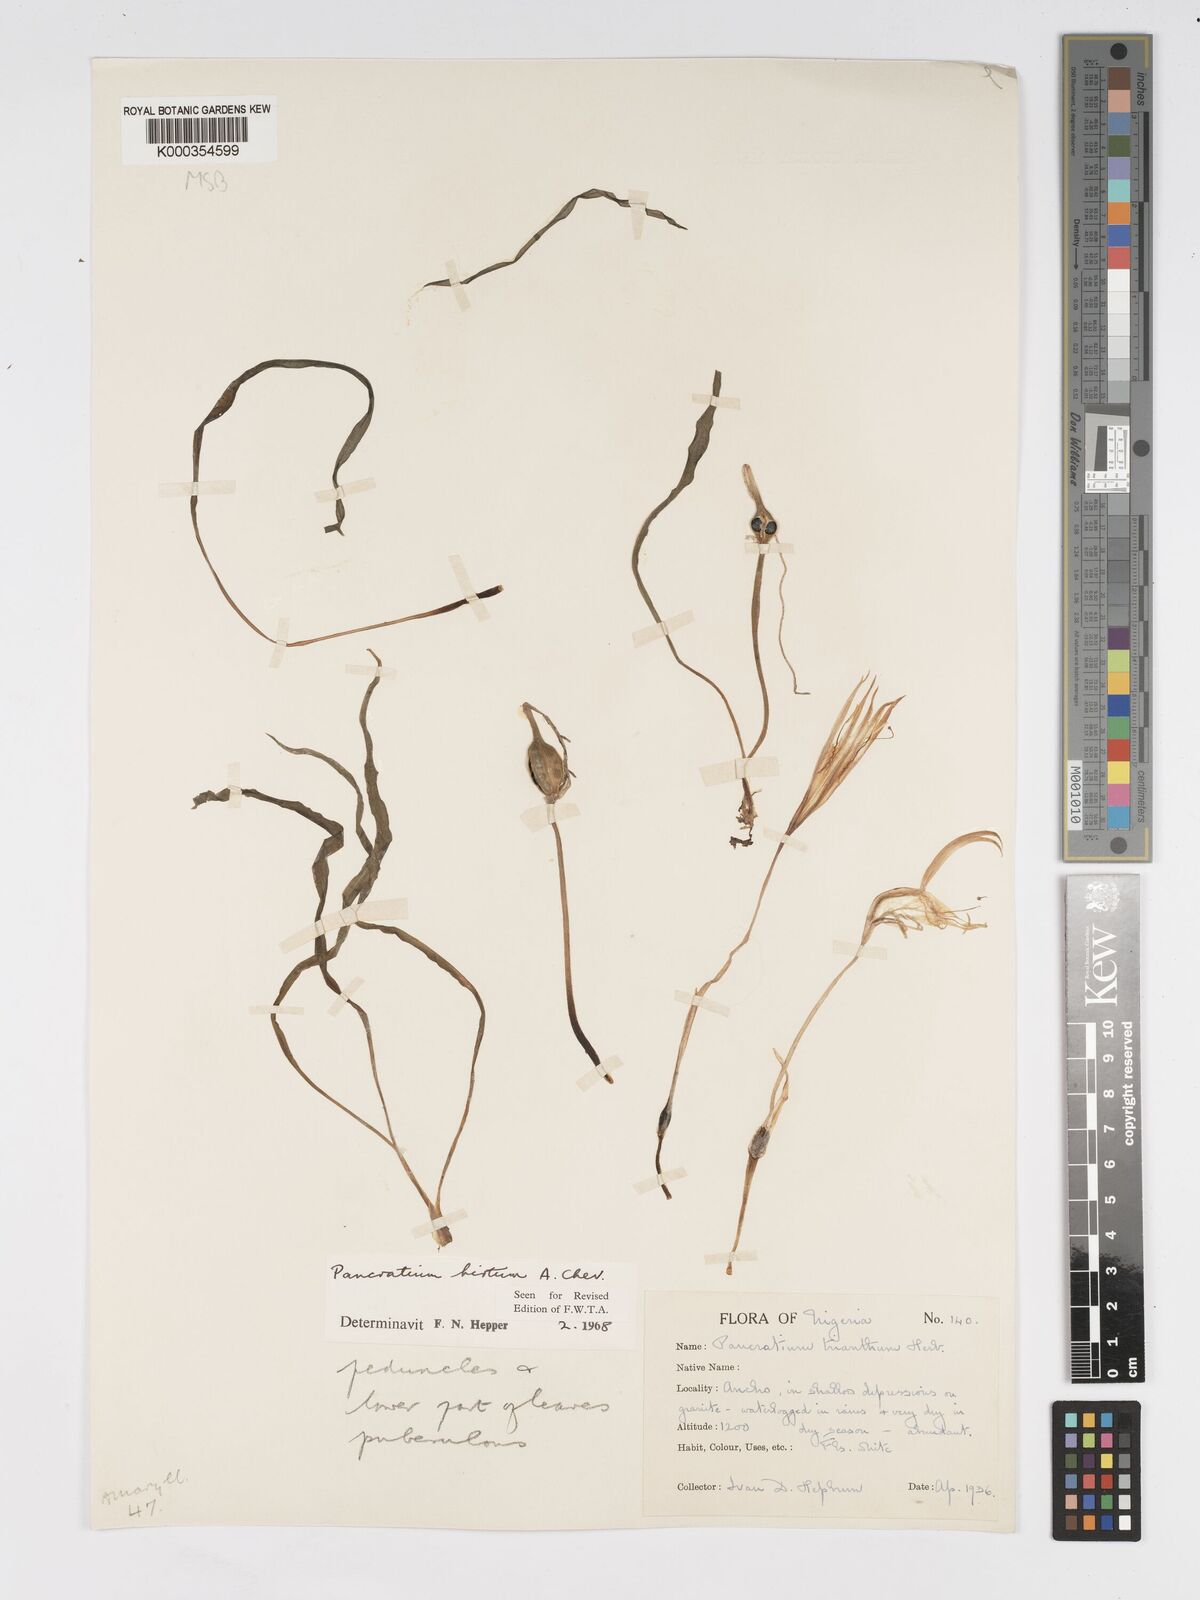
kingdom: Plantae
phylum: Tracheophyta
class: Liliopsida
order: Asparagales
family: Amaryllidaceae
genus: Pancratium
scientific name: Pancratium tenuifolium
